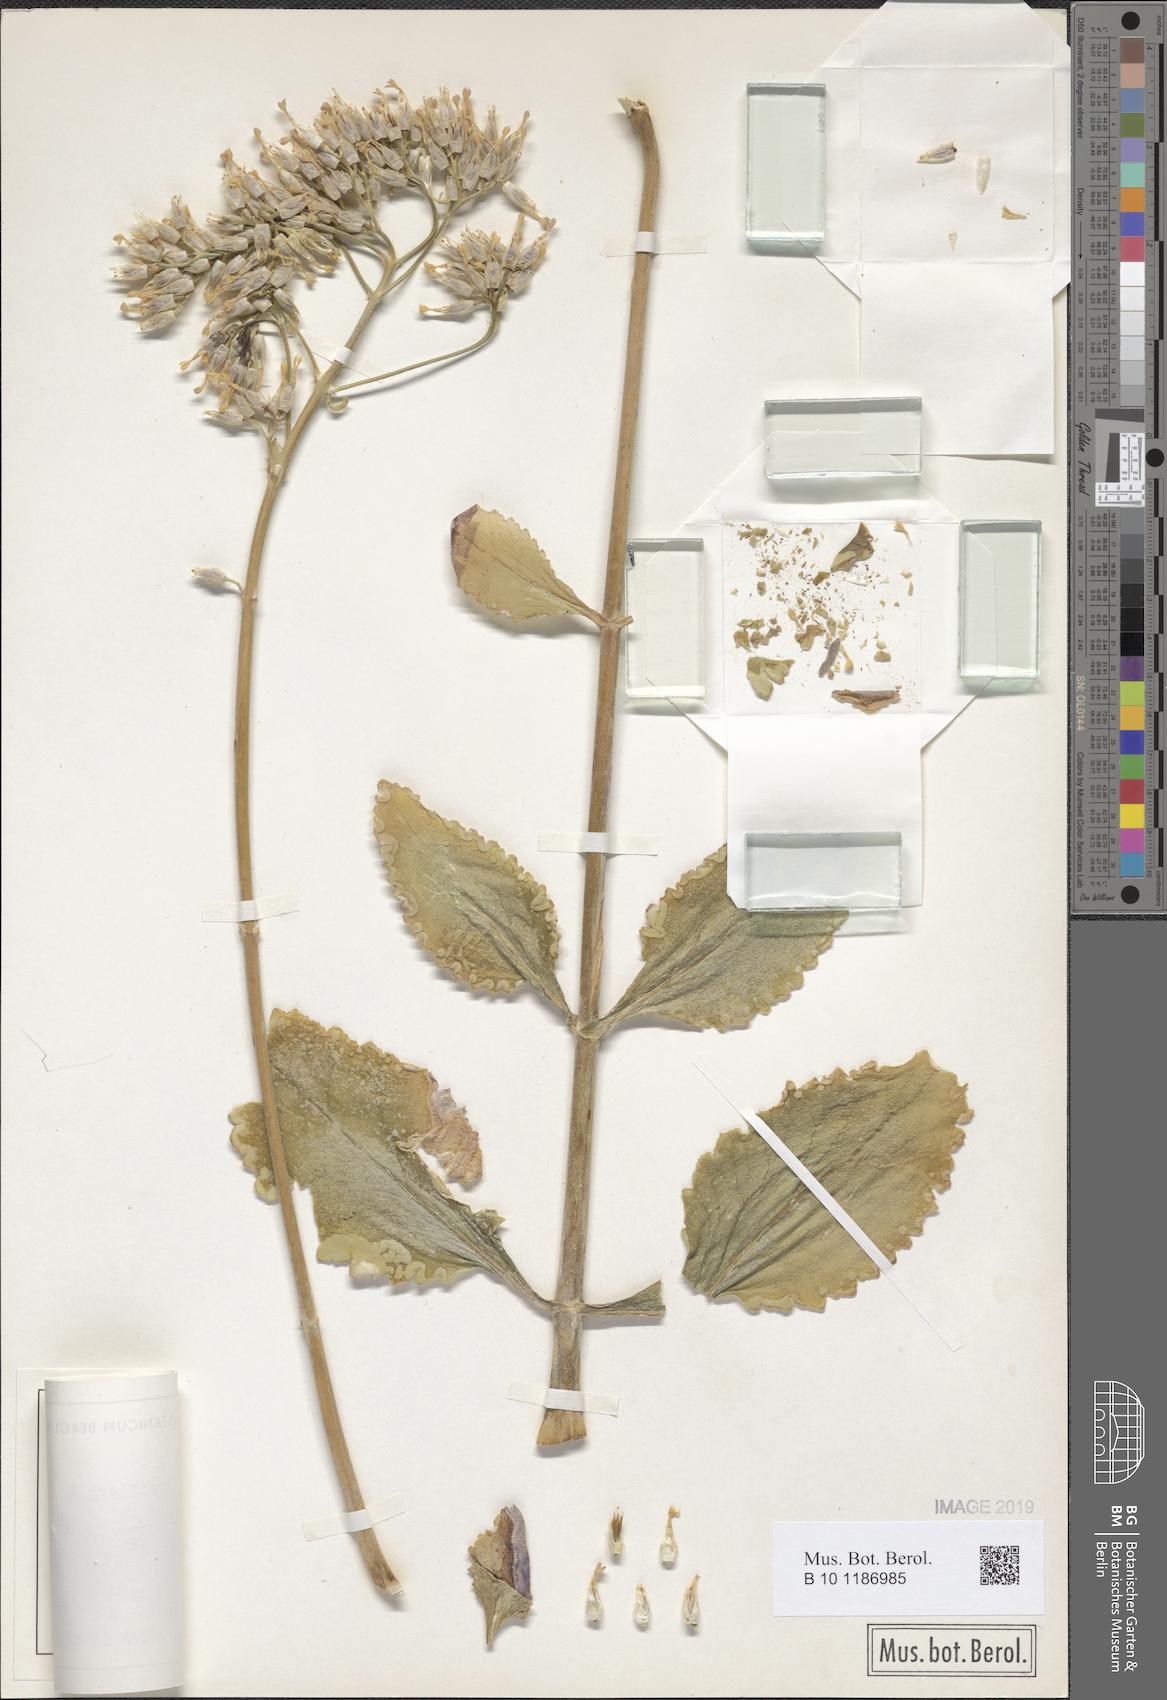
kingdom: Plantae
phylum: Tracheophyta
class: Magnoliopsida
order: Saxifragales
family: Crassulaceae
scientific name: Crassulaceae
